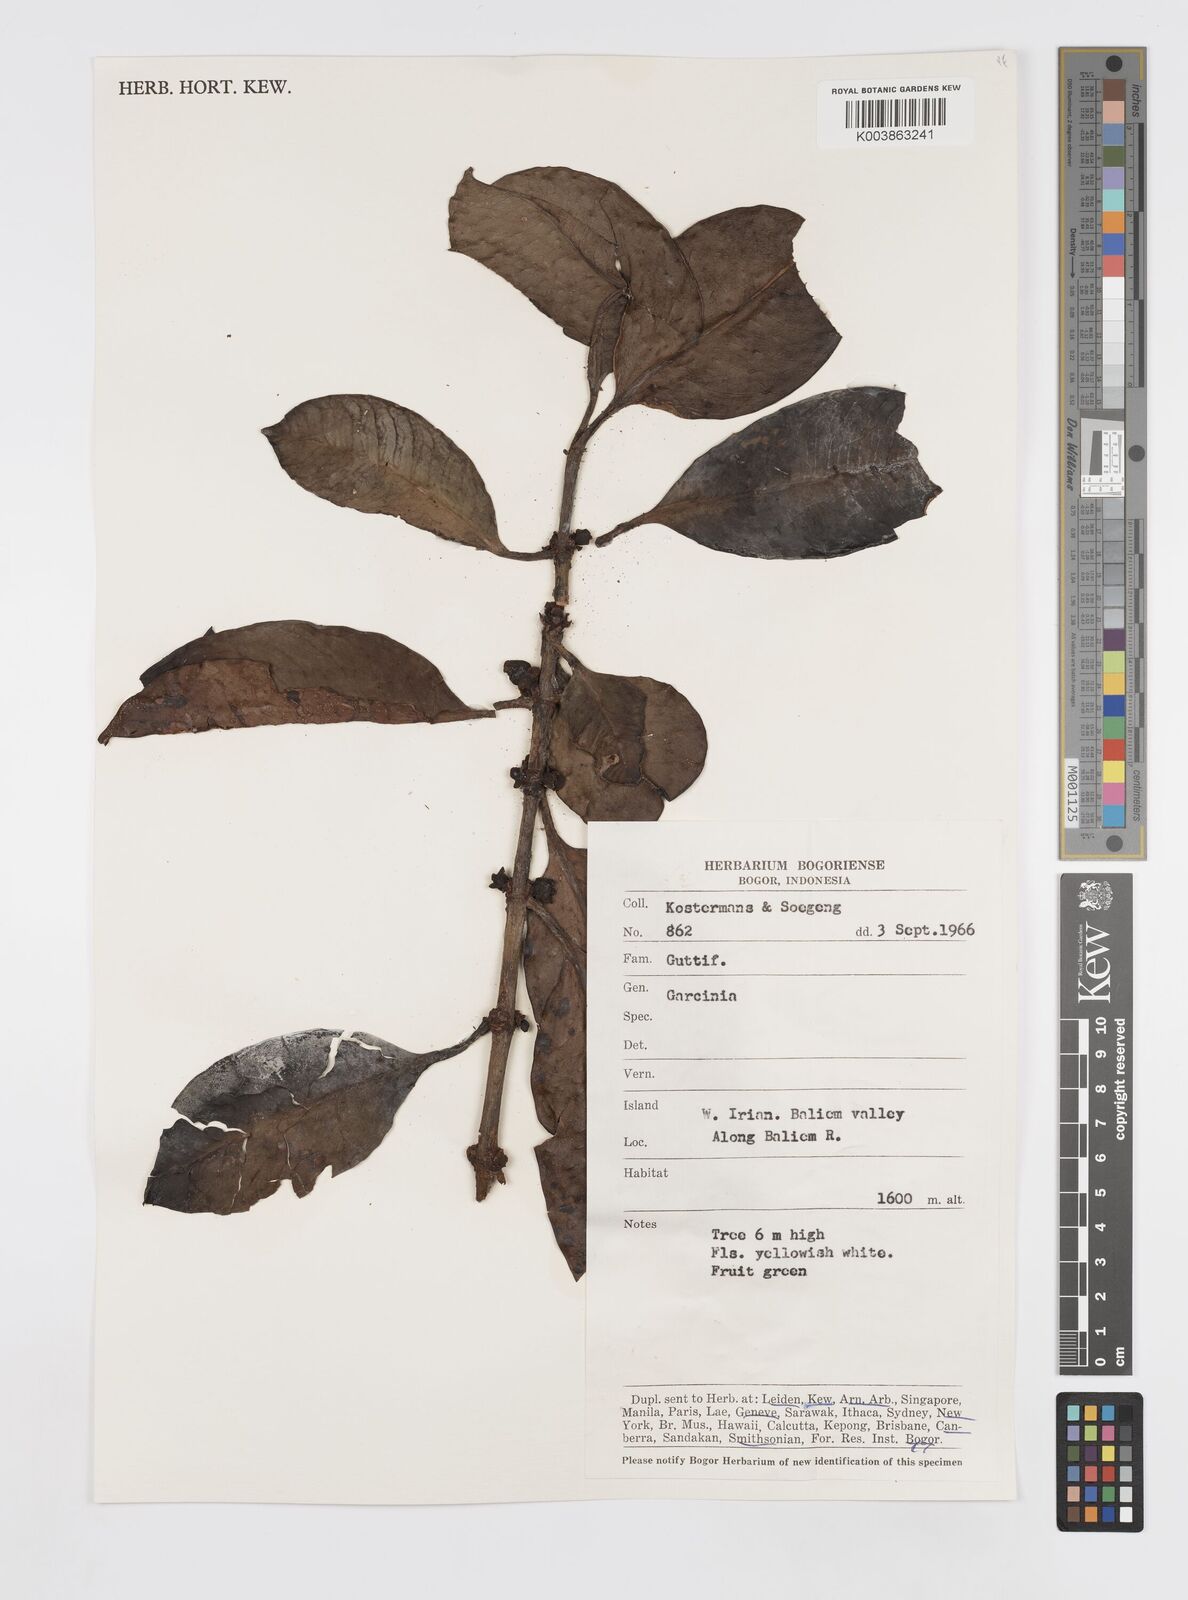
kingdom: Plantae
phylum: Tracheophyta
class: Magnoliopsida
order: Malpighiales
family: Clusiaceae
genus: Garcinia
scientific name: Garcinia
